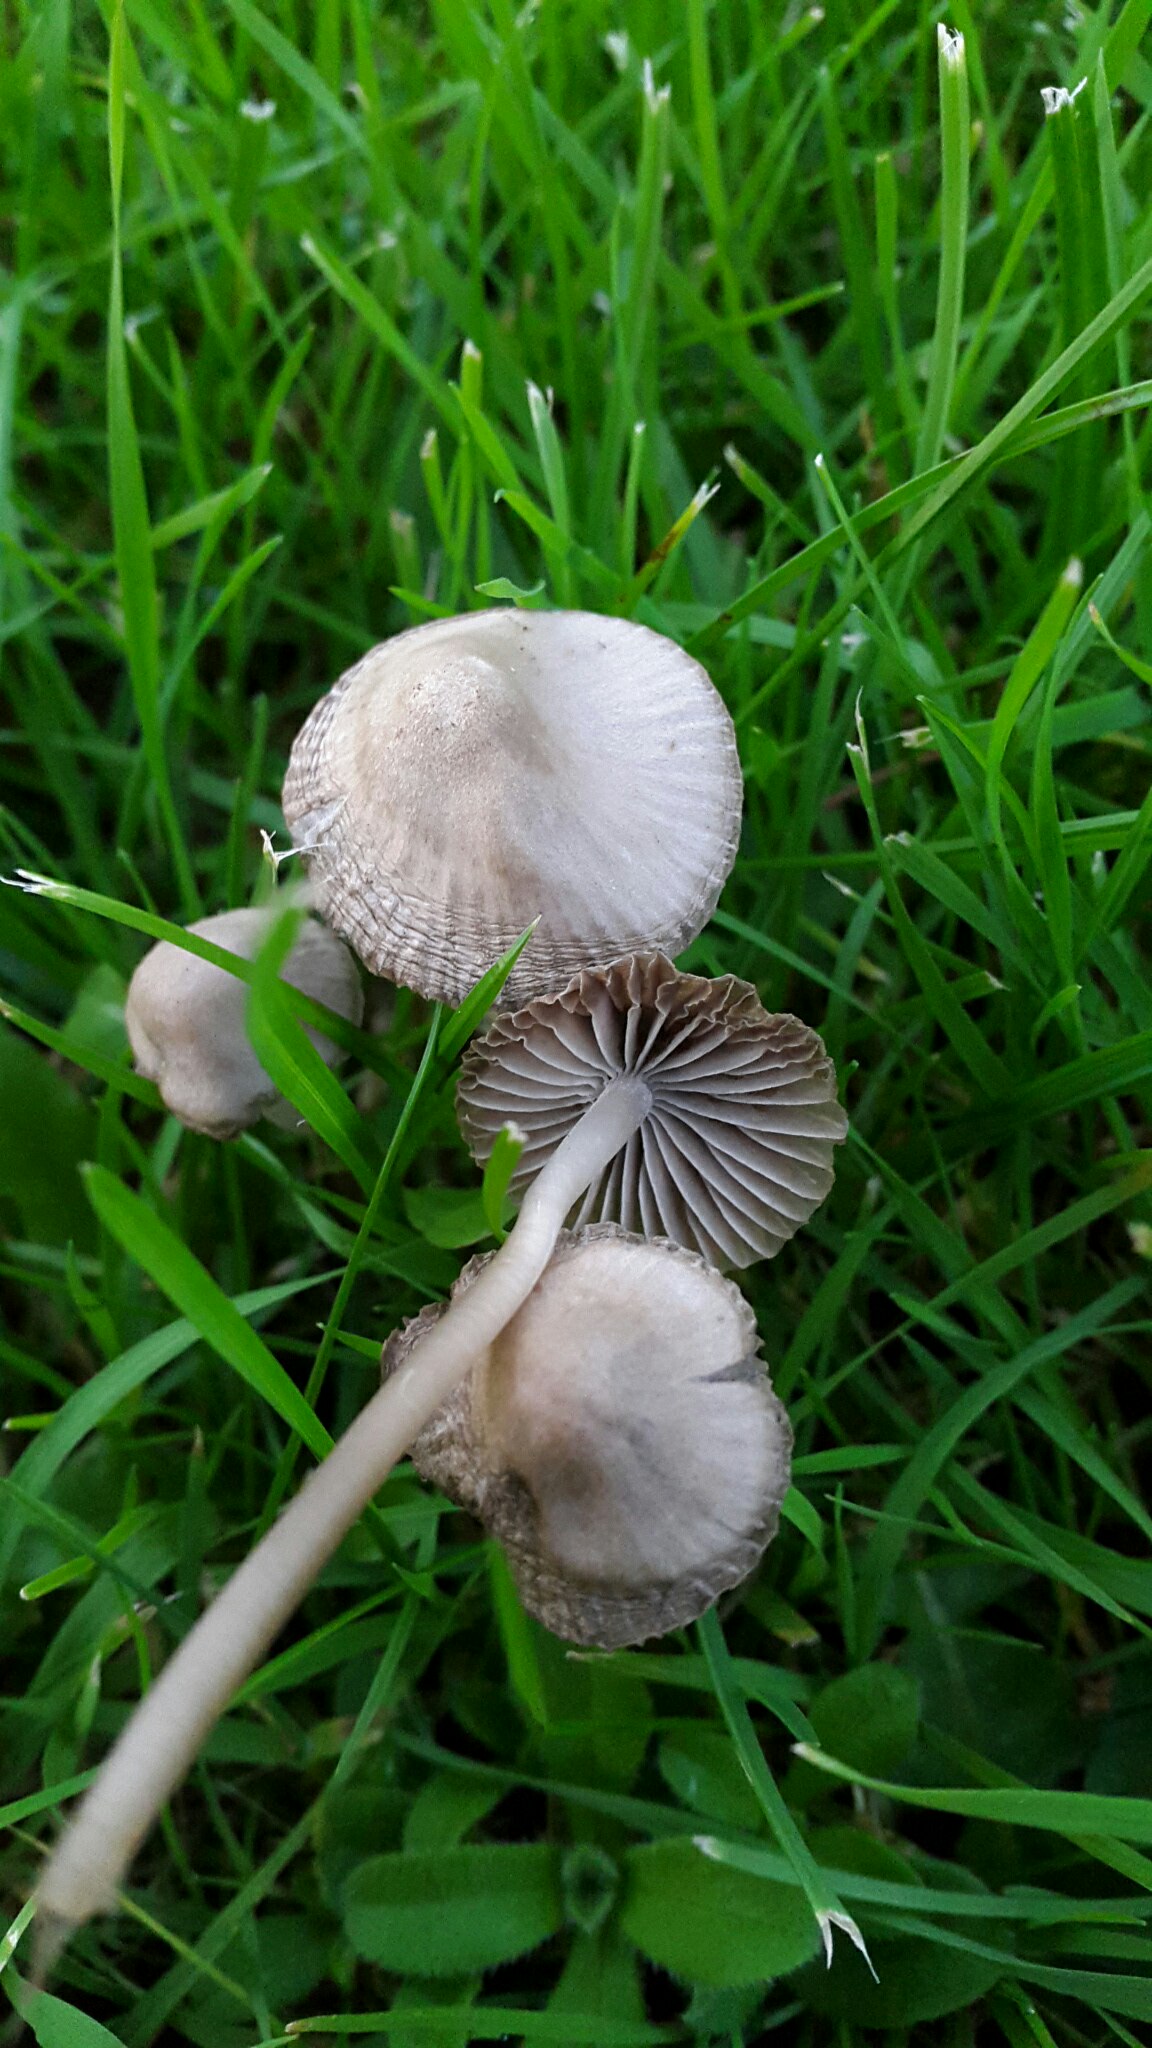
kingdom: Fungi
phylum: Basidiomycota
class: Agaricomycetes
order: Agaricales
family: Mycenaceae
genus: Mycena
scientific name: Mycena aetites
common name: plæne-huesvamp
